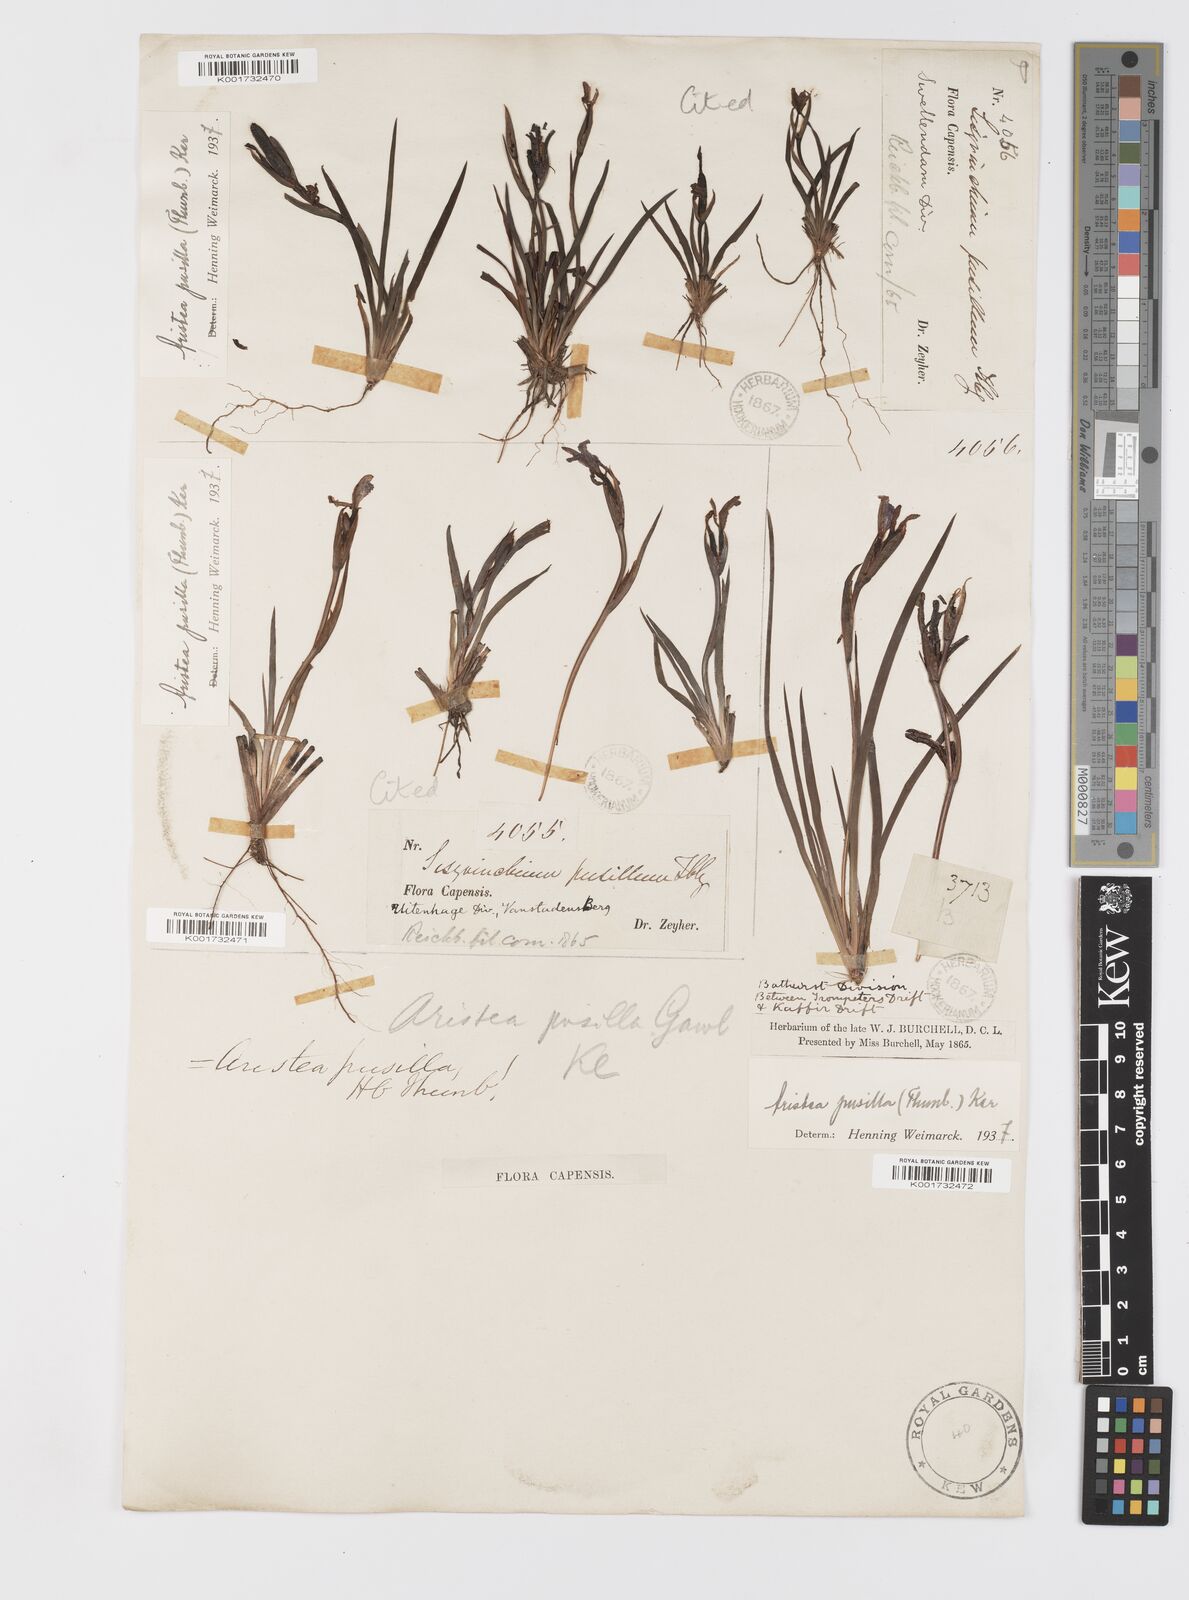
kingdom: Plantae
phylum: Tracheophyta
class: Liliopsida
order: Asparagales
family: Iridaceae
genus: Aristea
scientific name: Aristea pusilla
